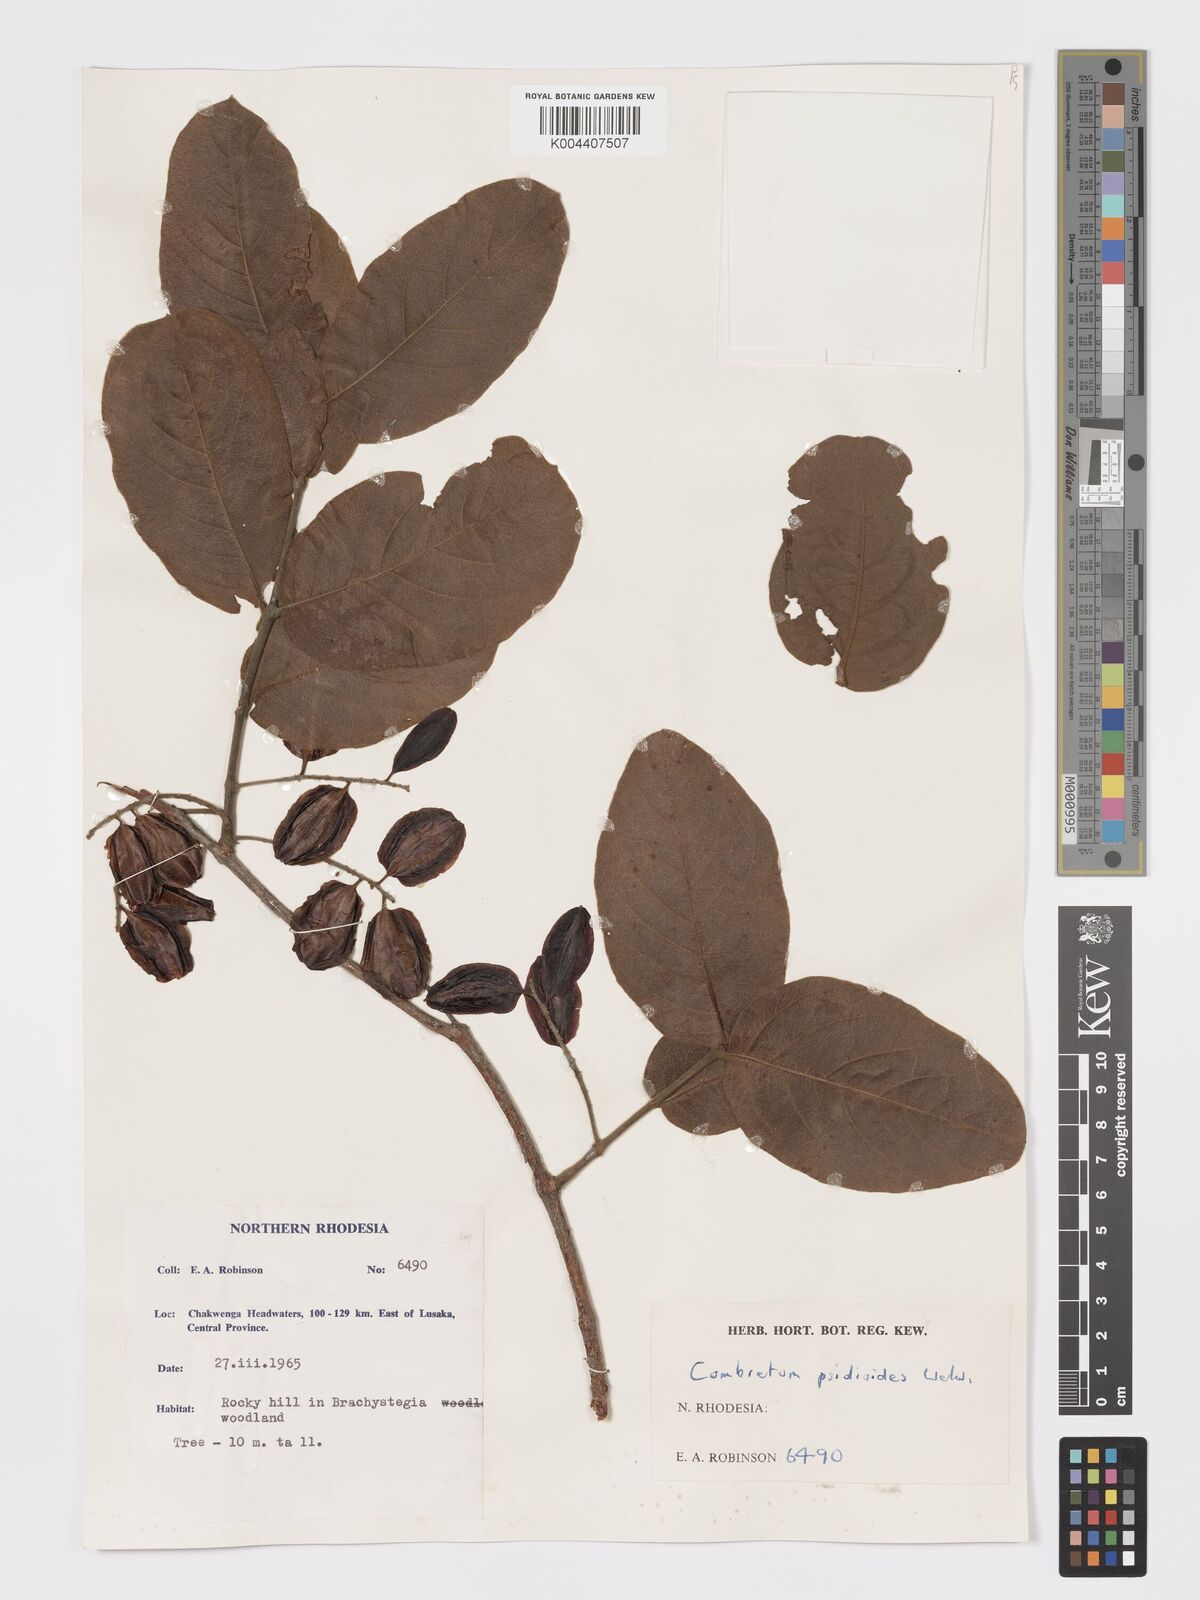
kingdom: Plantae
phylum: Tracheophyta
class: Magnoliopsida
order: Myrtales
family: Combretaceae
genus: Combretum
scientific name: Combretum psidioides
